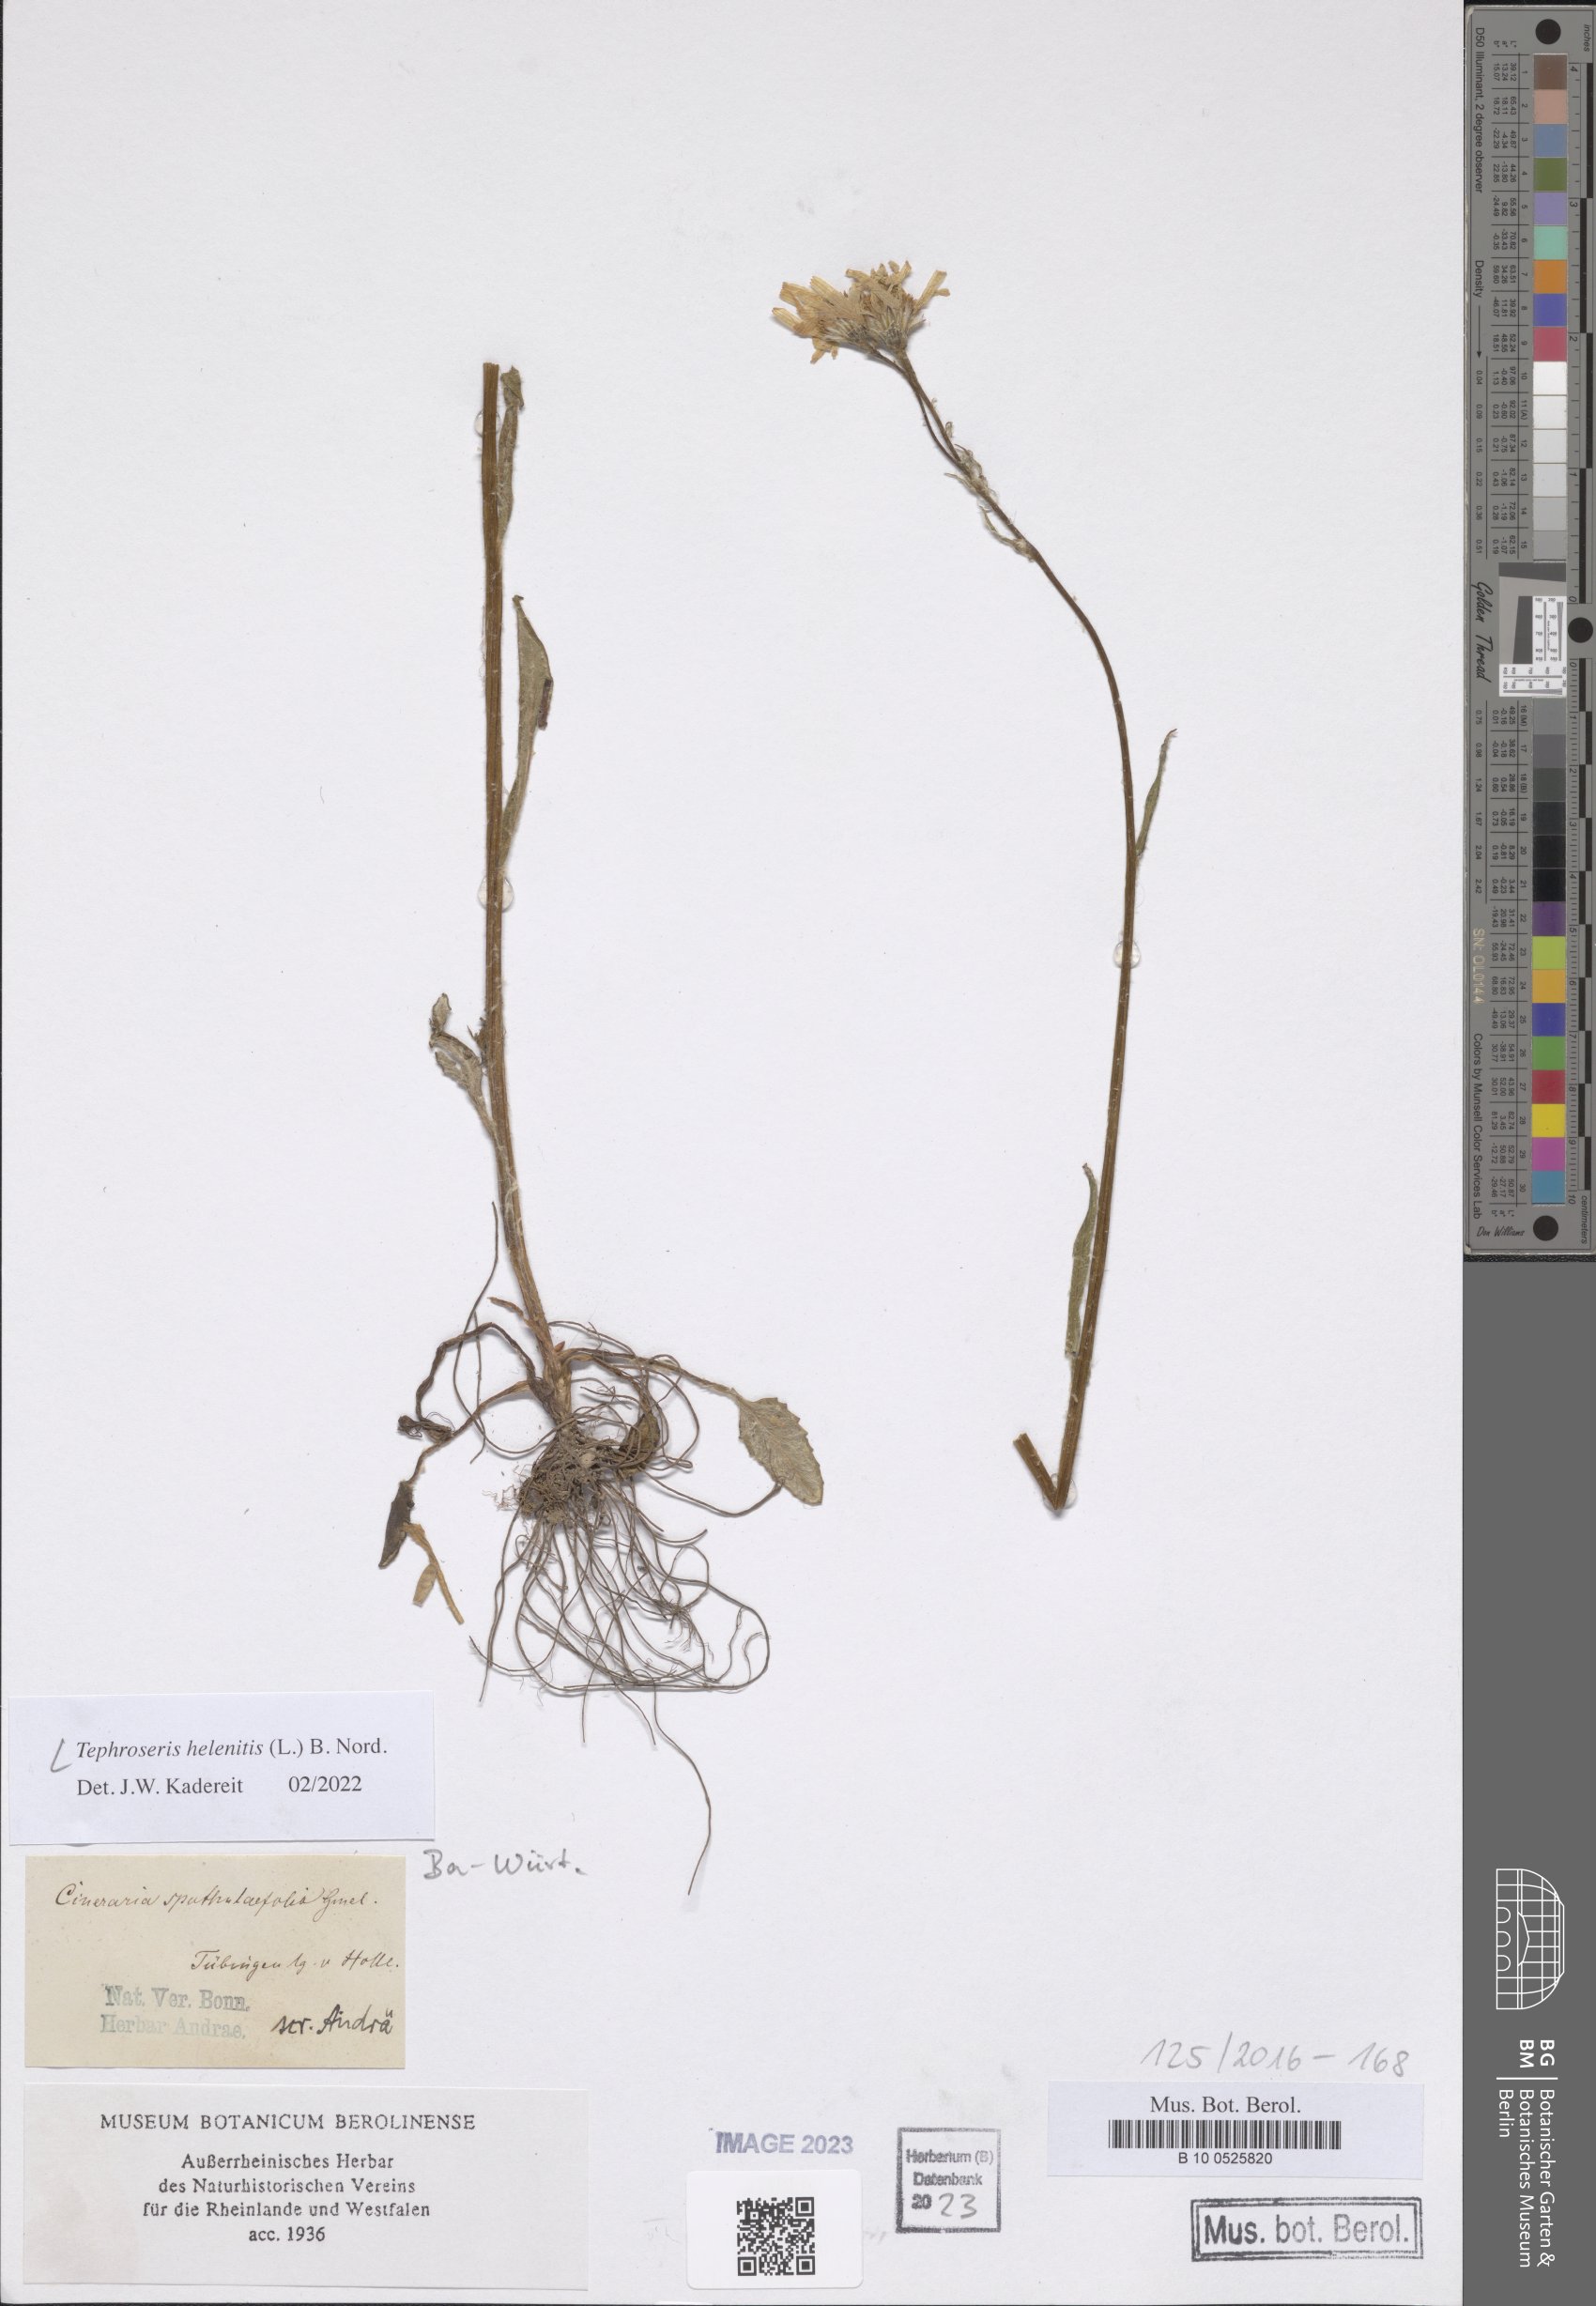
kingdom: Plantae
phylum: Tracheophyta
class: Magnoliopsida
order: Asterales
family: Asteraceae
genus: Tephroseris
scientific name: Tephroseris helenitis
